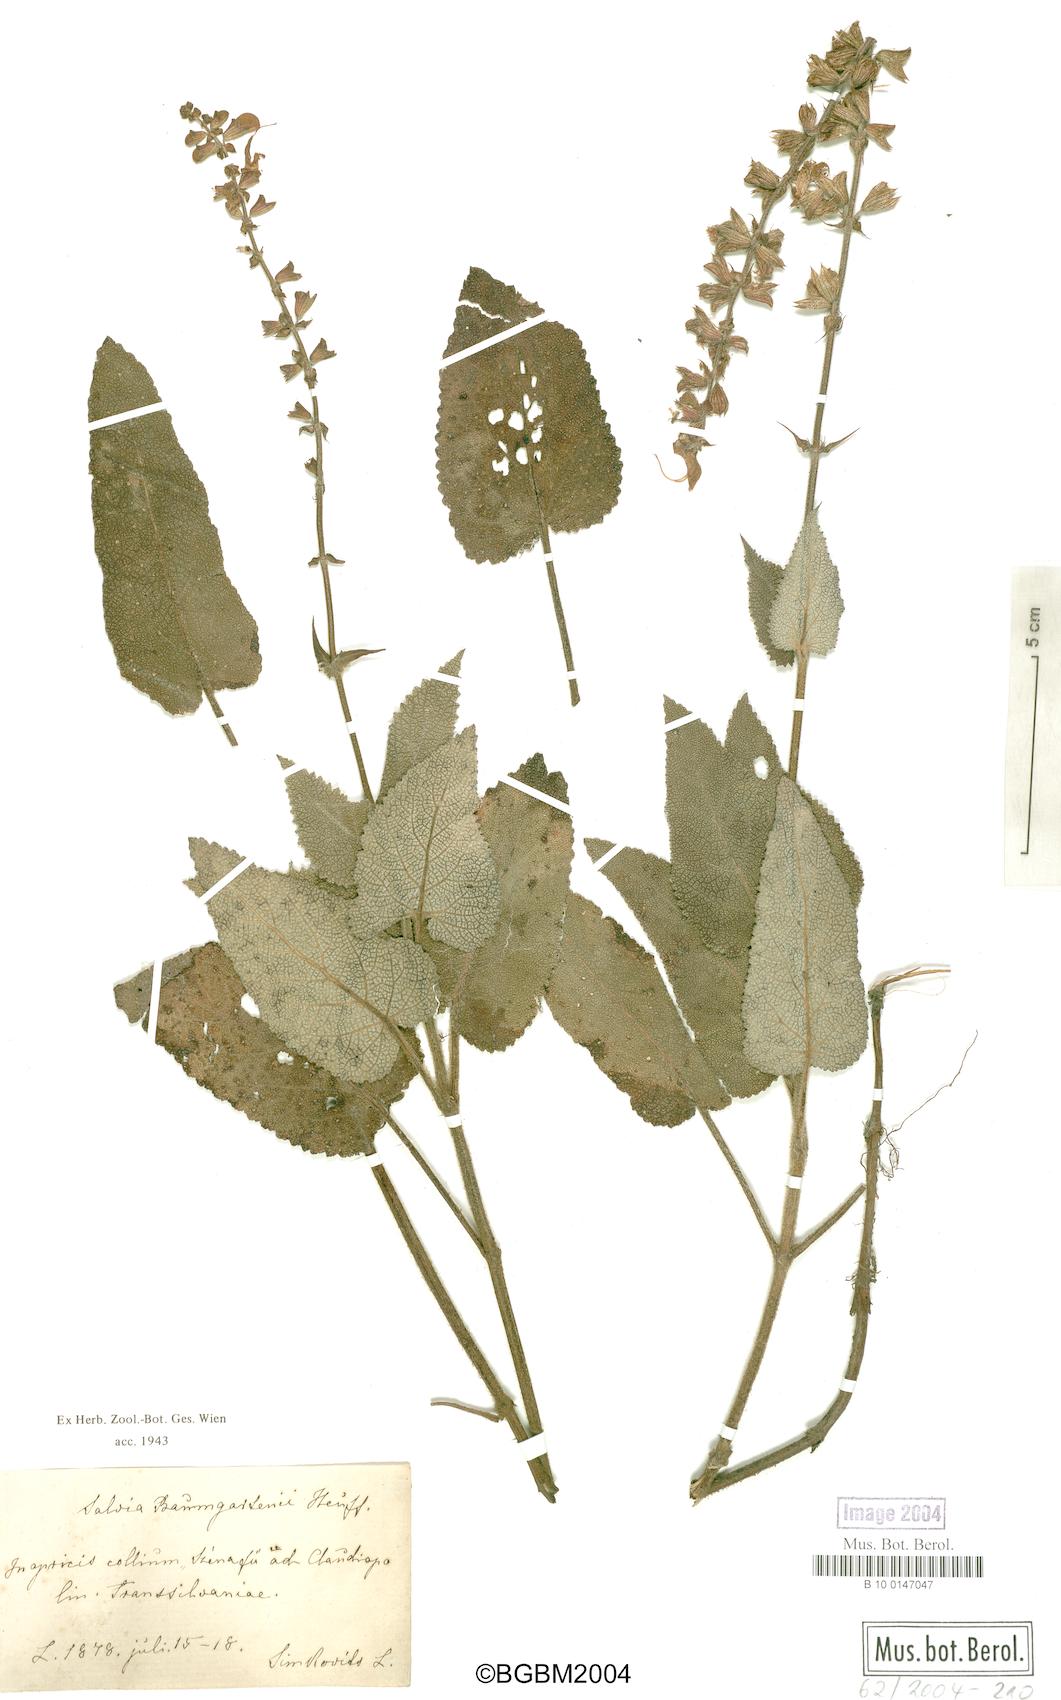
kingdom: Plantae
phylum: Tracheophyta
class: Magnoliopsida
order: Lamiales
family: Lamiaceae
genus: Salvia
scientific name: Salvia transsylvanica
